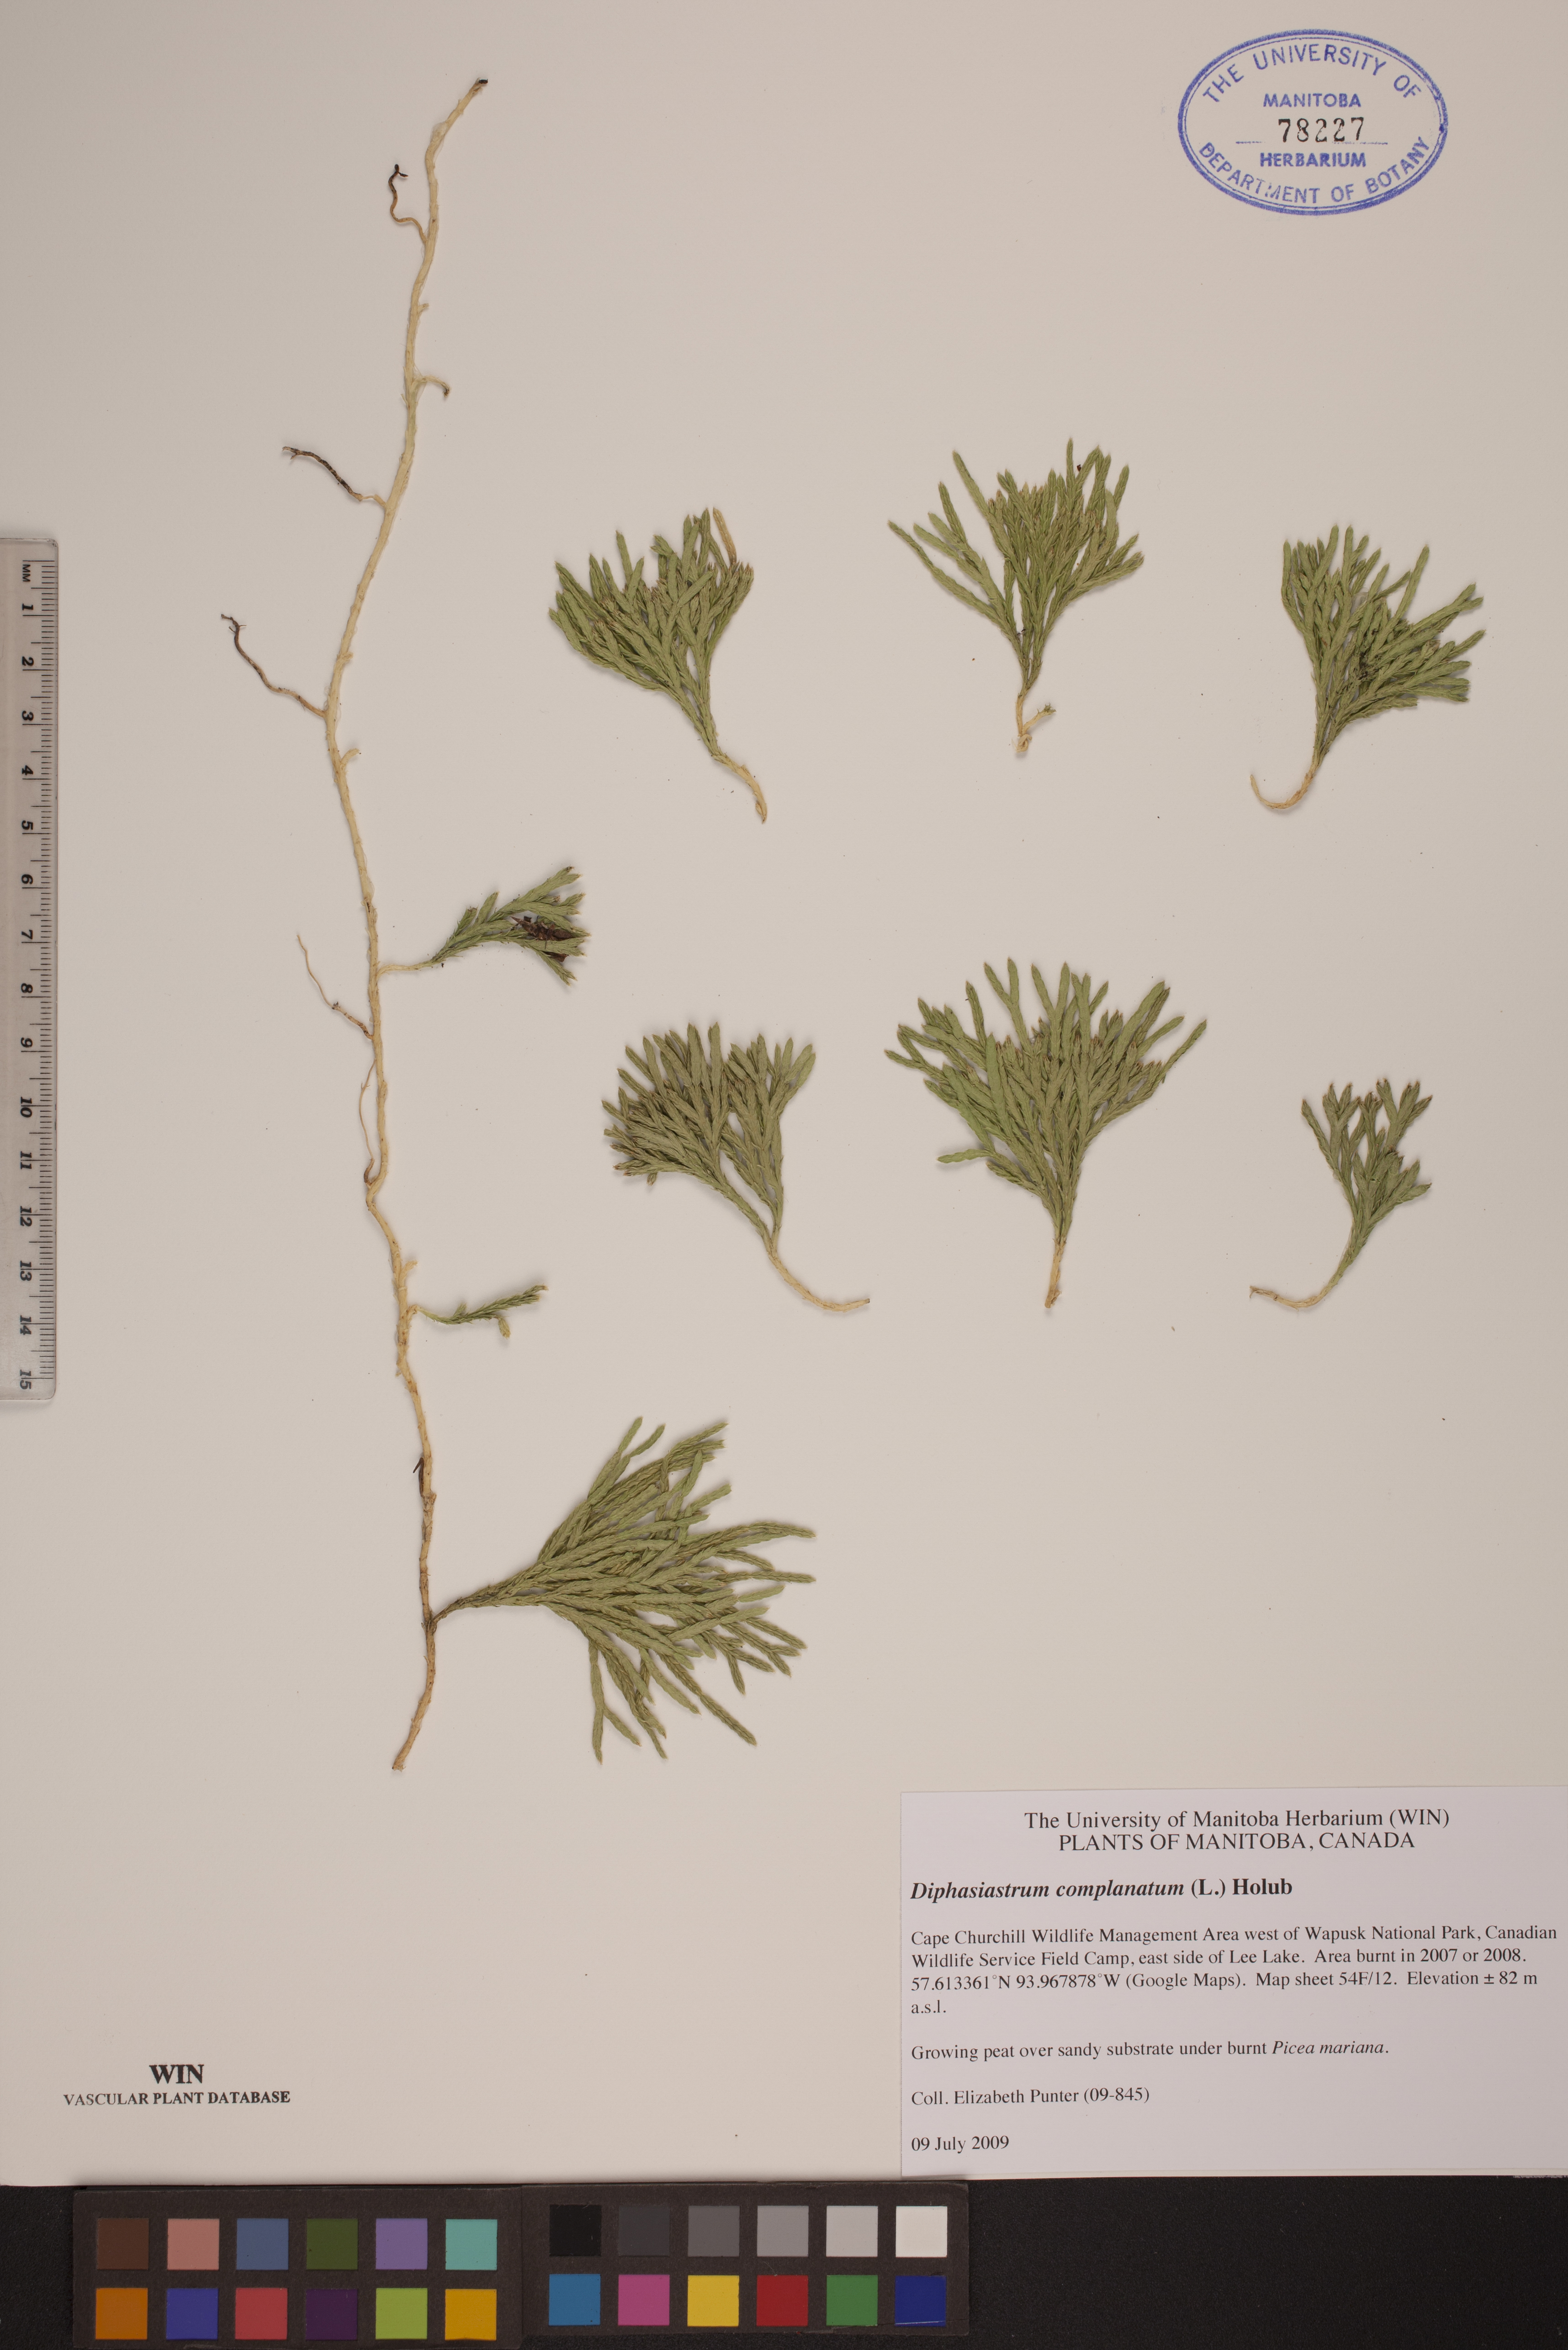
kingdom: Plantae
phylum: Tracheophyta
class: Lycopodiopsida
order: Lycopodiales
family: Lycopodiaceae
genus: Diphasiastrum
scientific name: Diphasiastrum complanatum
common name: Northern running-pine
